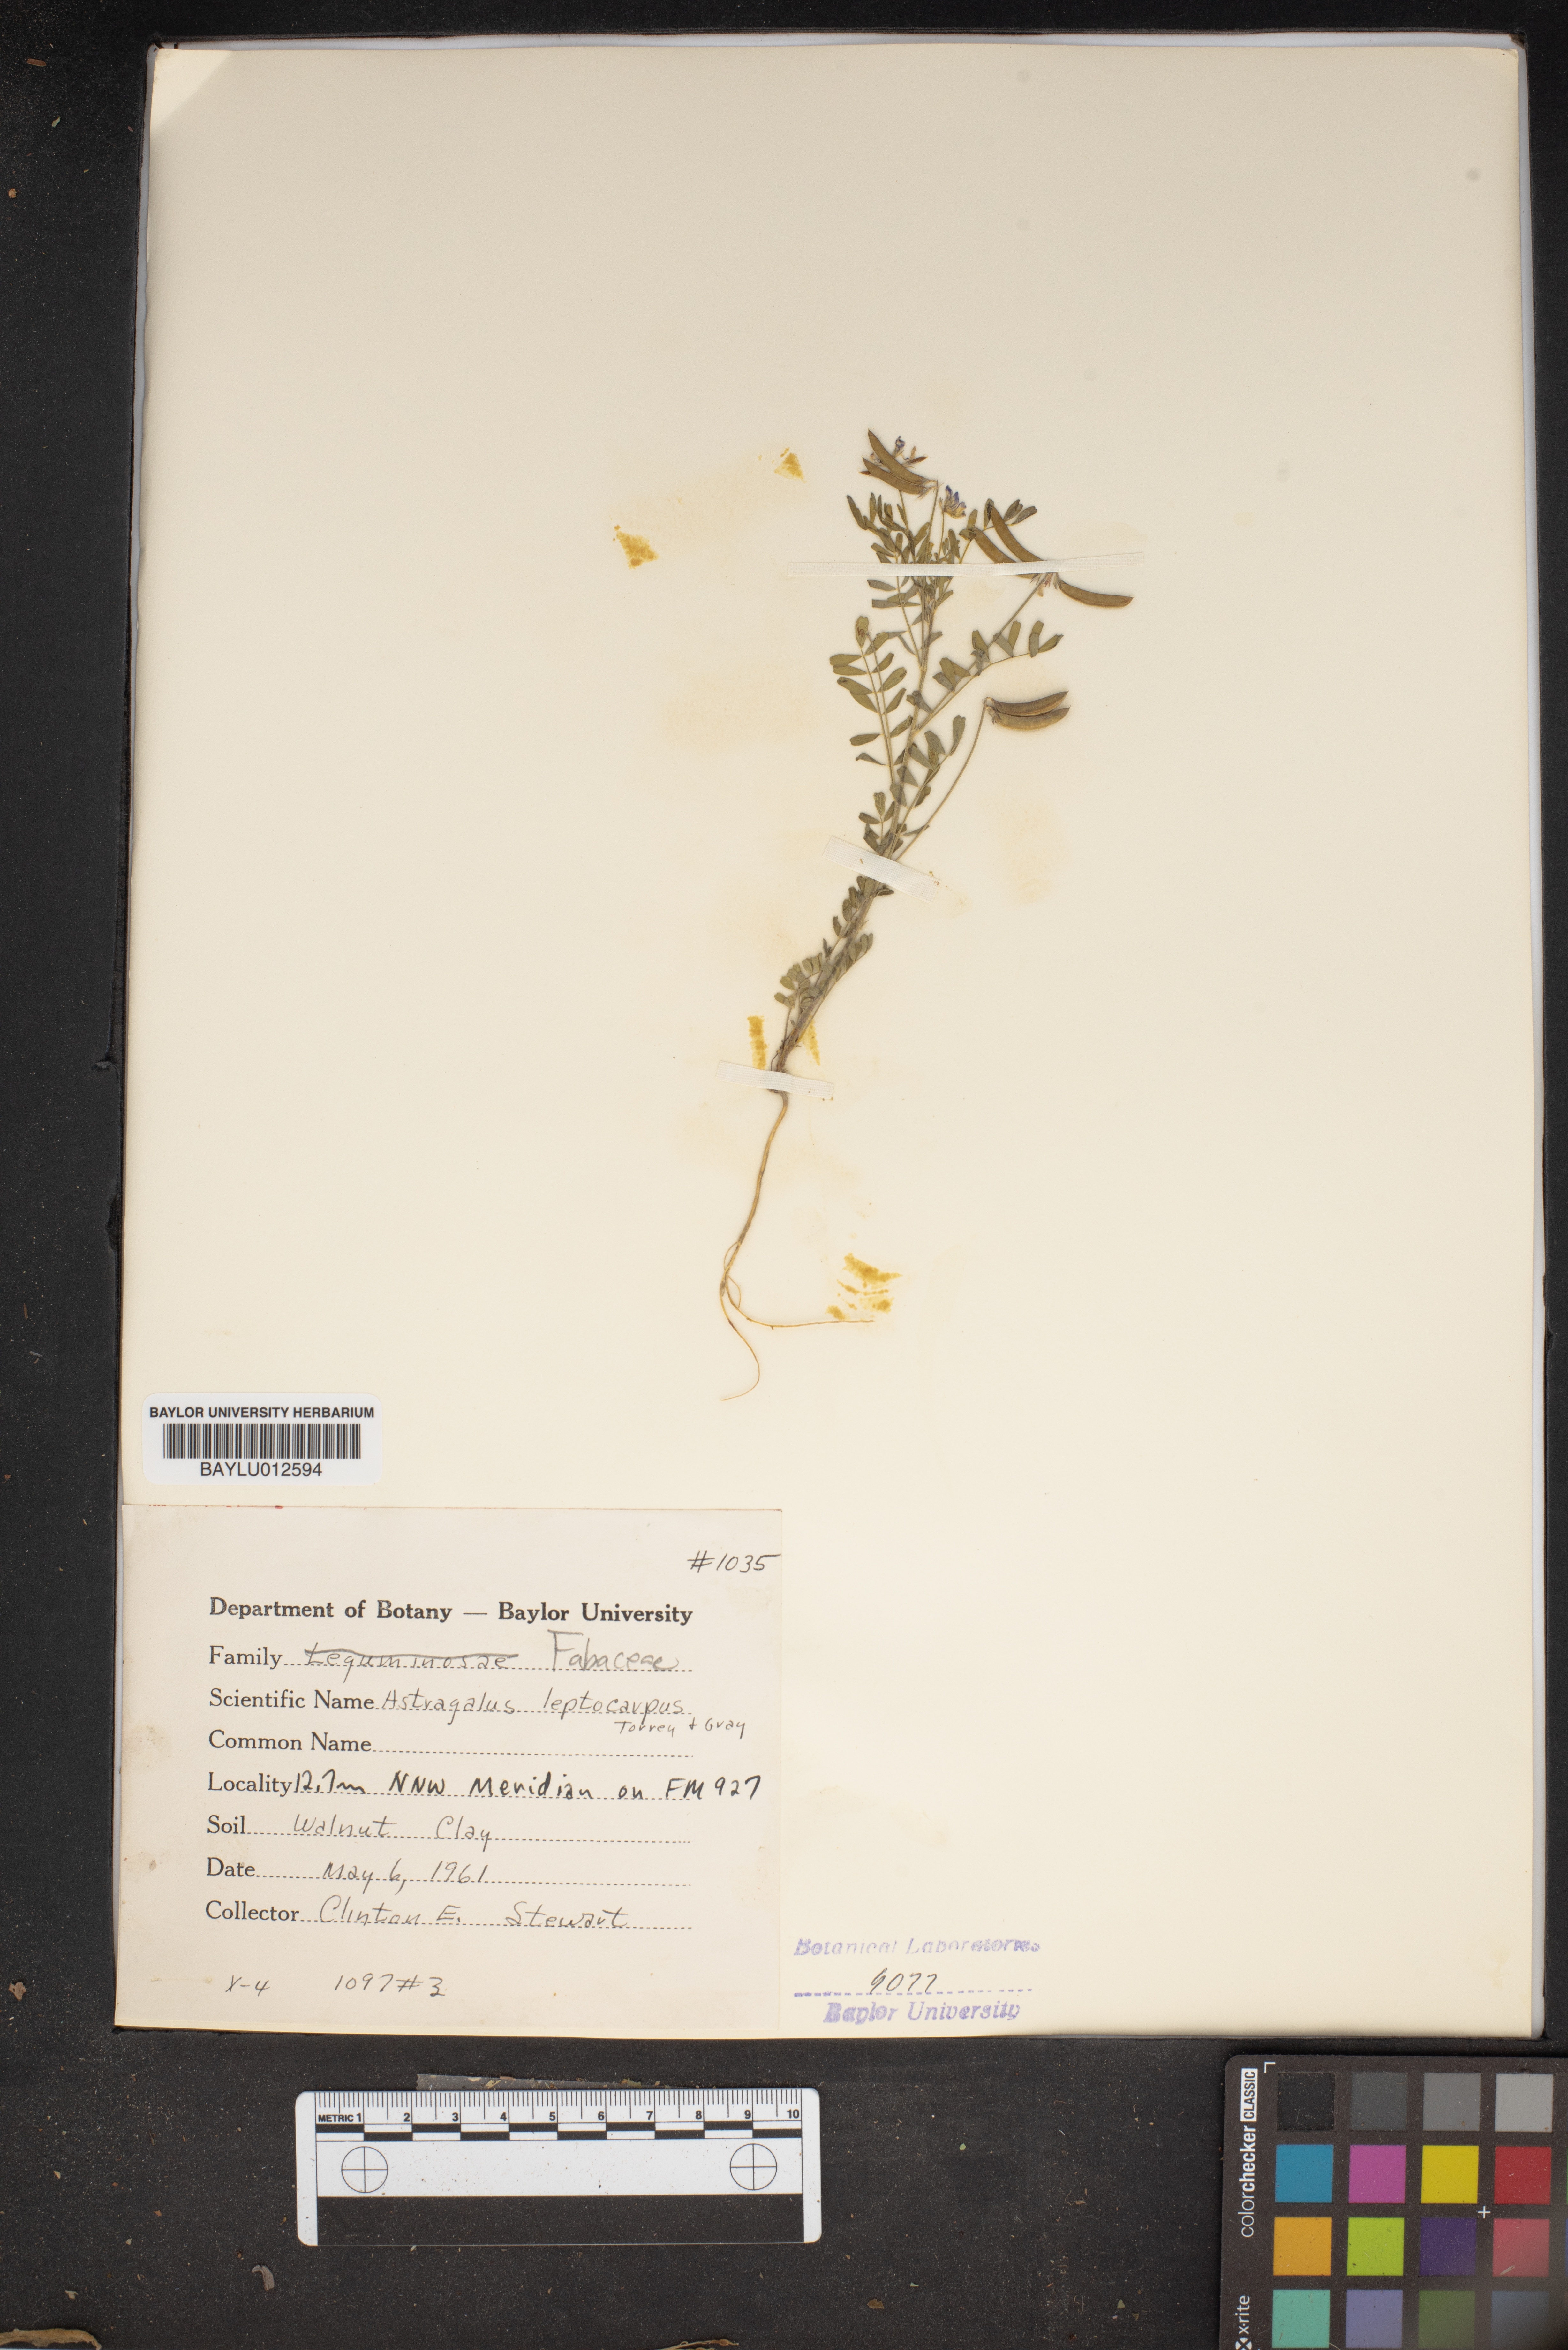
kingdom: Plantae
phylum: Tracheophyta
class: Magnoliopsida
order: Fabales
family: Fabaceae
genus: Astragalus
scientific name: Astragalus leptocarpus
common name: Bodkin milk-vetch
